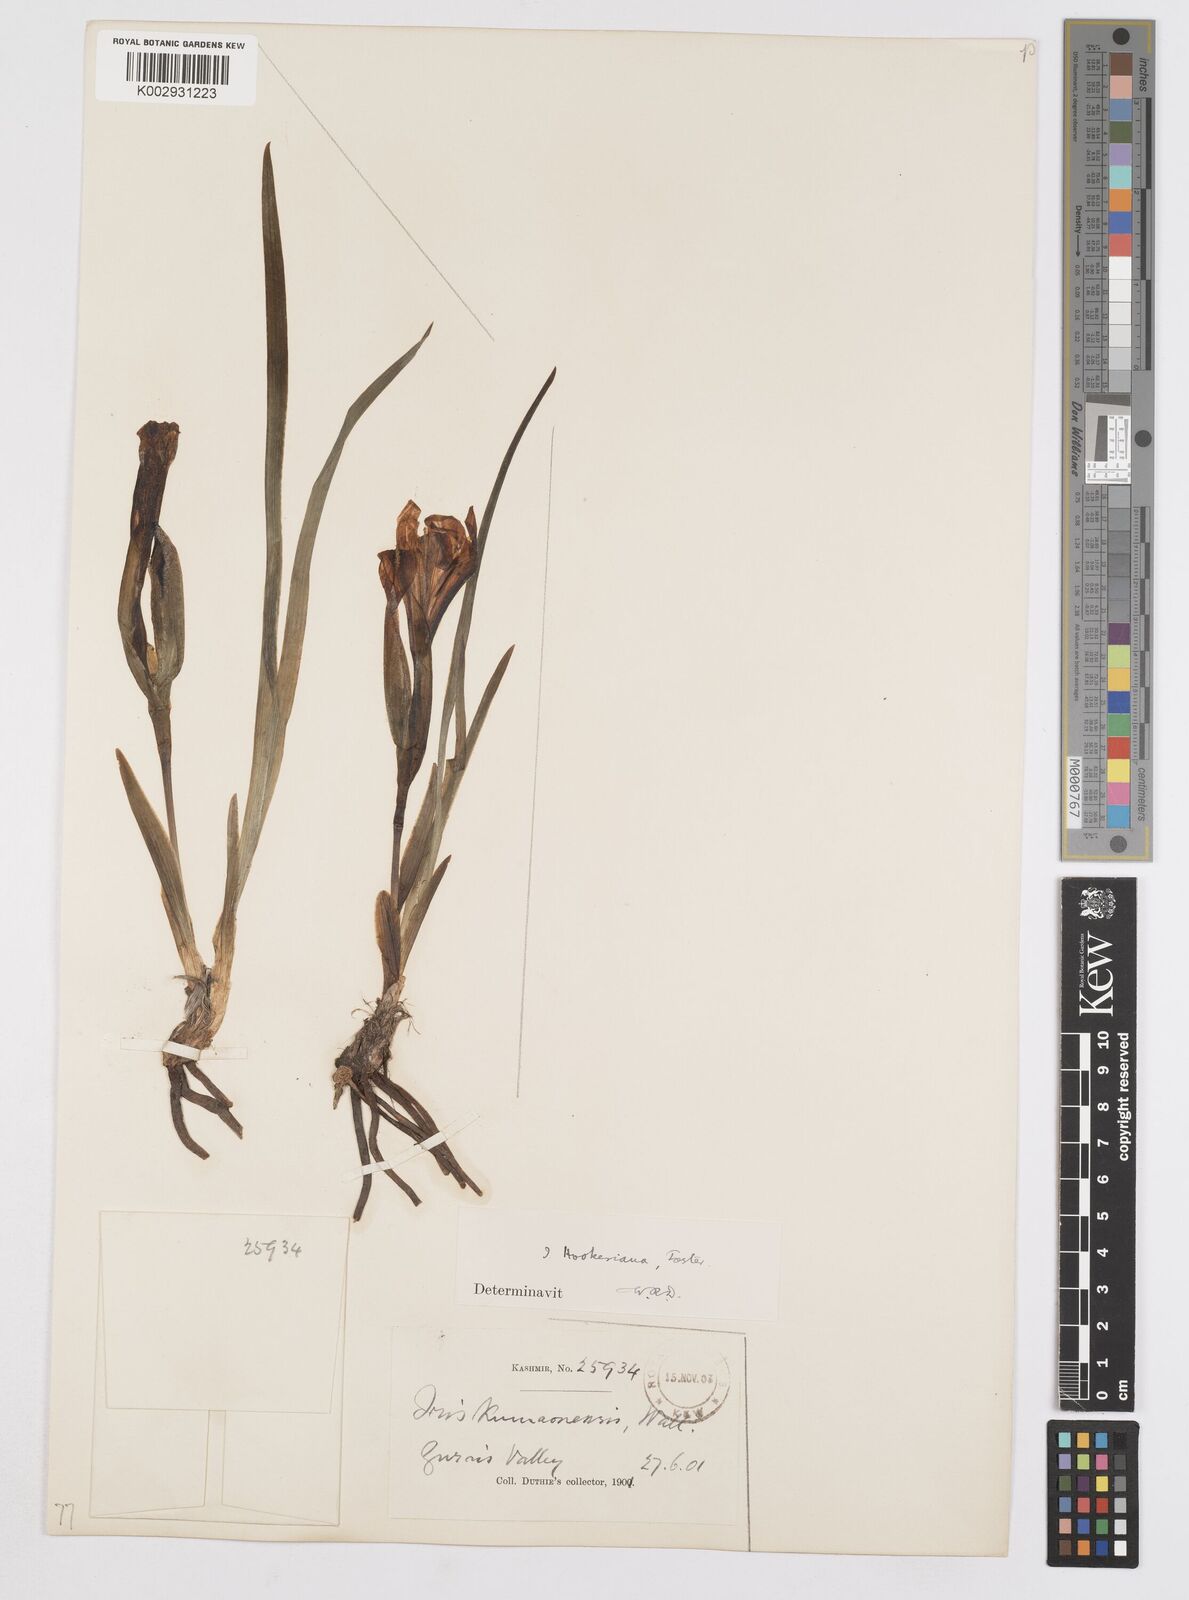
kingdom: Plantae
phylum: Tracheophyta
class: Liliopsida
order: Asparagales
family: Iridaceae
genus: Iris
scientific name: Iris hookeriana
